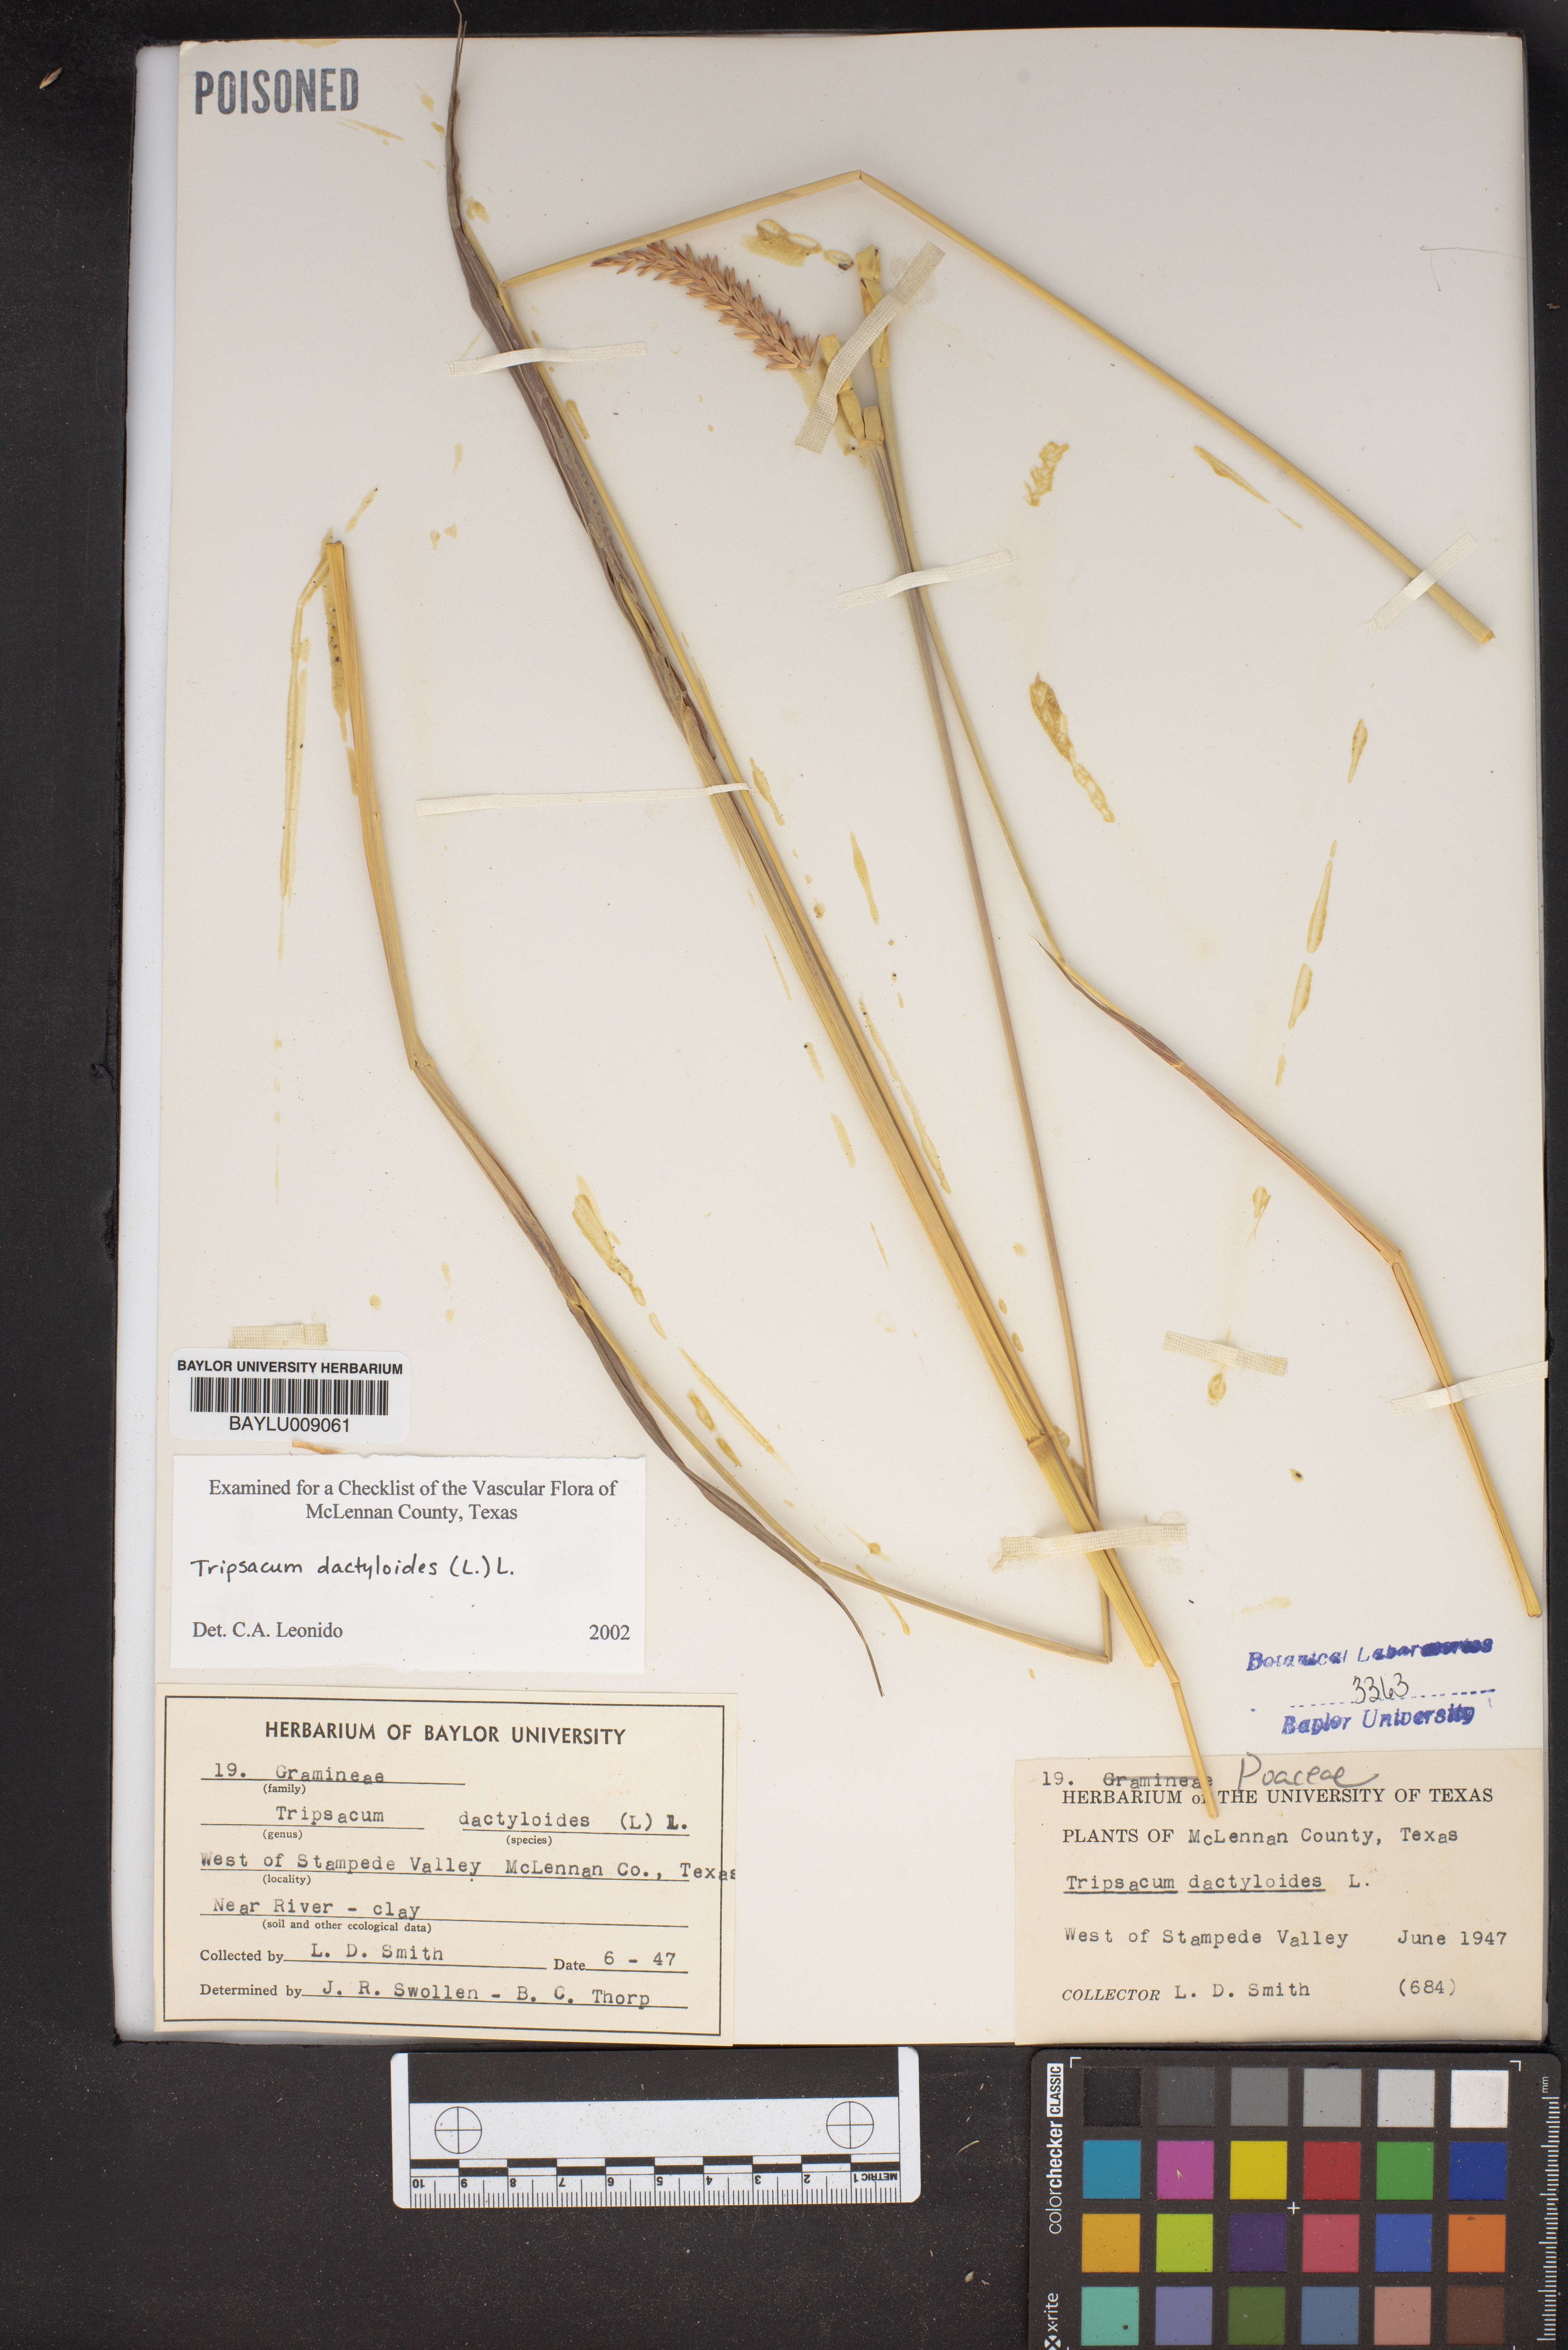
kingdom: Plantae
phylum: Tracheophyta
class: Liliopsida
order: Poales
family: Poaceae
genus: Tripsacum
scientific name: Tripsacum dactyloides
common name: Buffalo-grass
